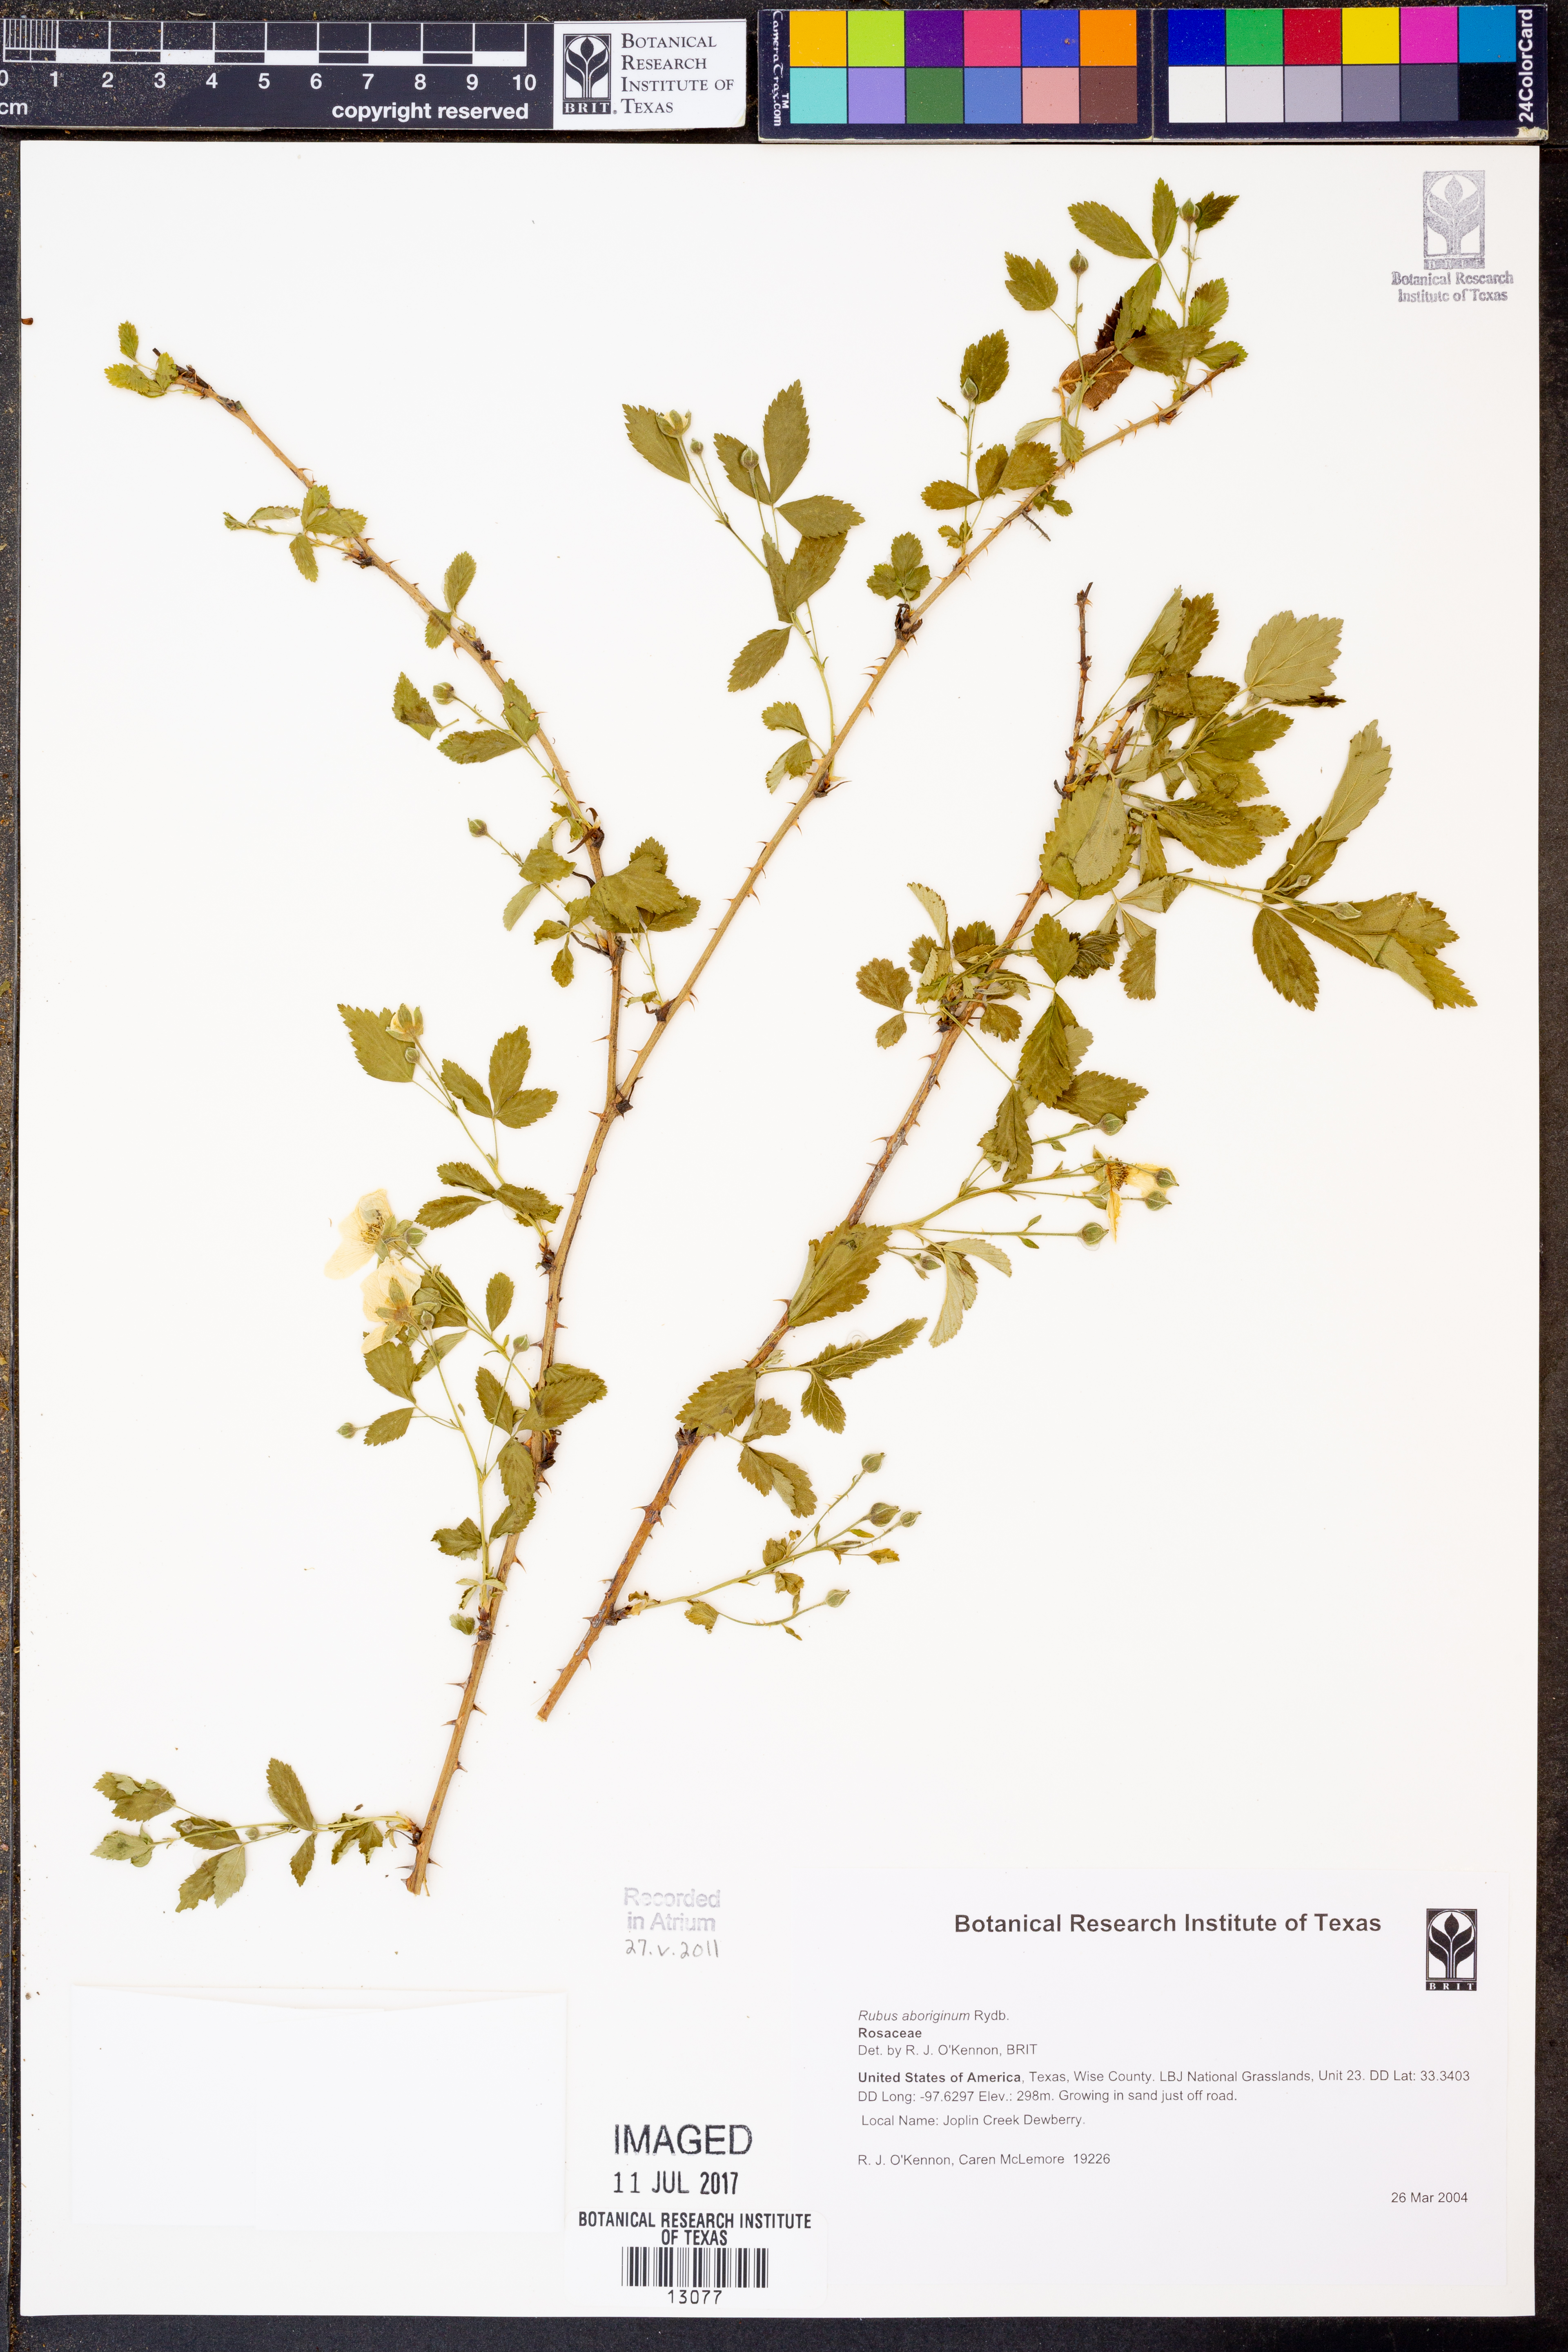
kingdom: Plantae
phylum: Tracheophyta
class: Magnoliopsida
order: Rosales
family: Rosaceae
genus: Rubus
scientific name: Rubus aboriginum
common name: Mayes dewberry
